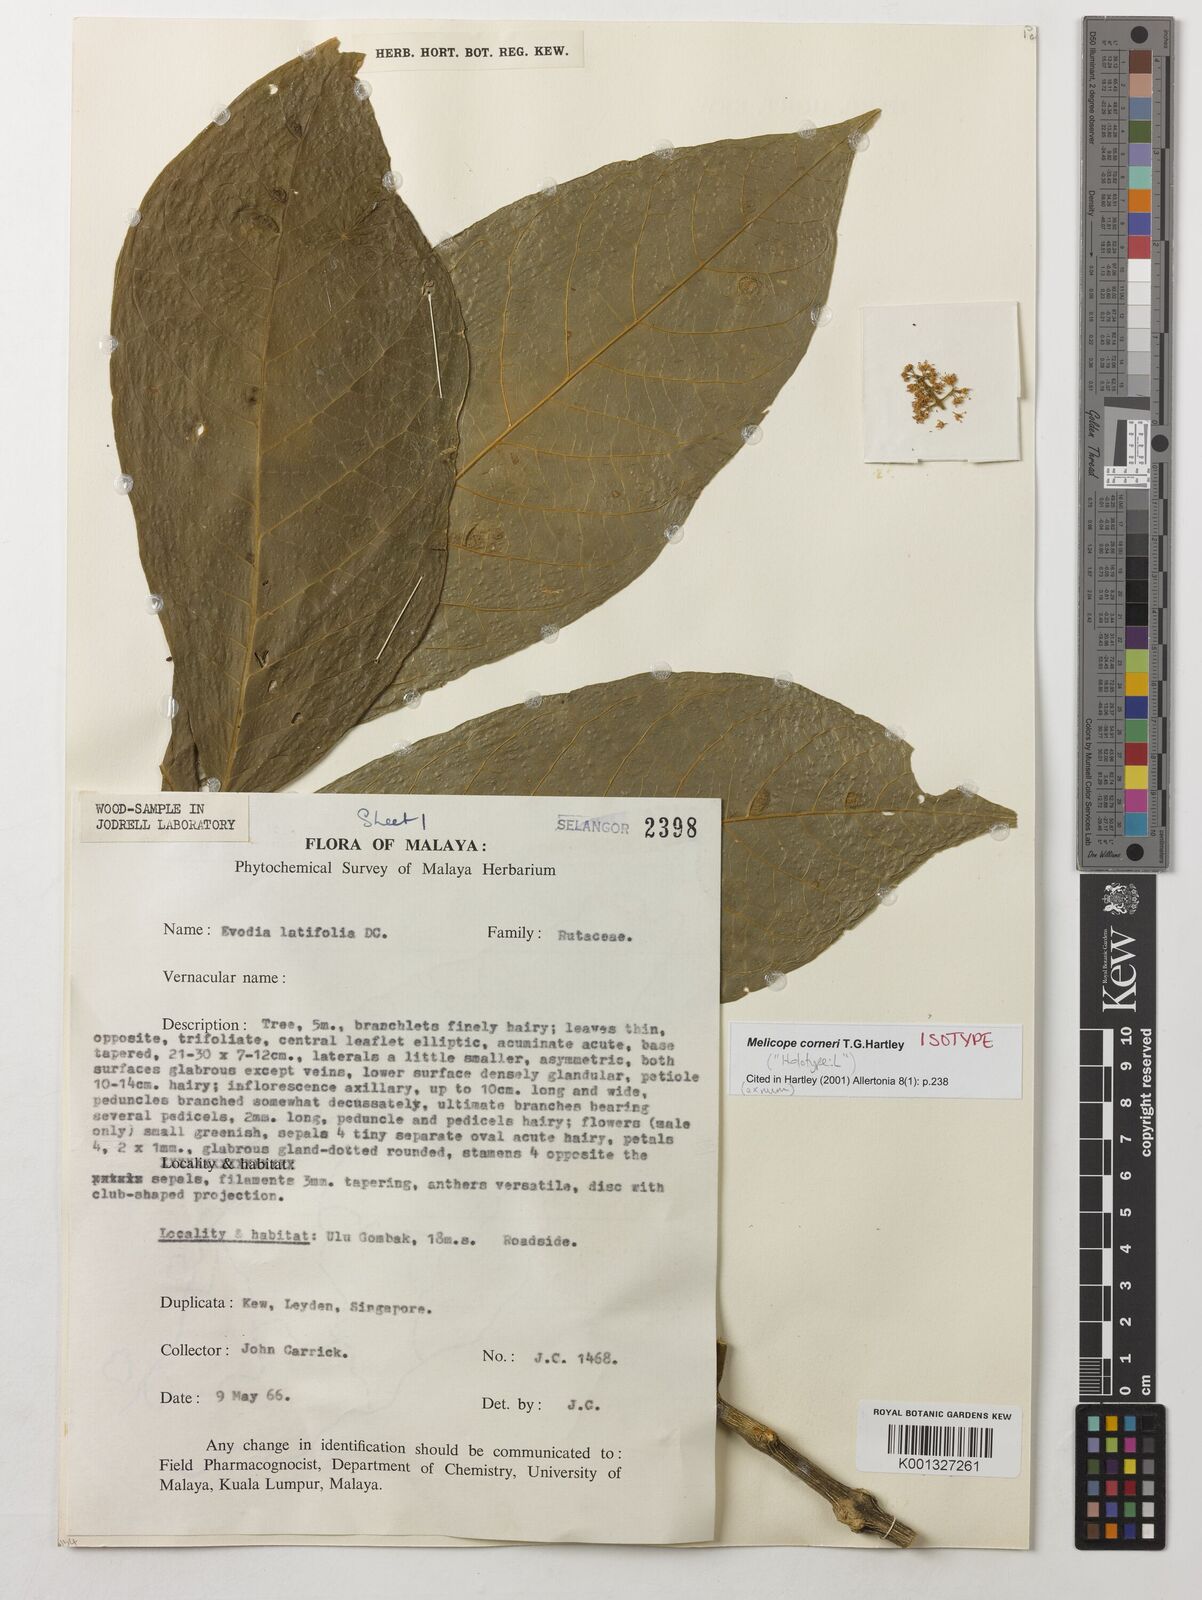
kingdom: Plantae
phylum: Tracheophyta
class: Magnoliopsida
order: Sapindales
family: Rutaceae
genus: Melicope
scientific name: Melicope corneri
